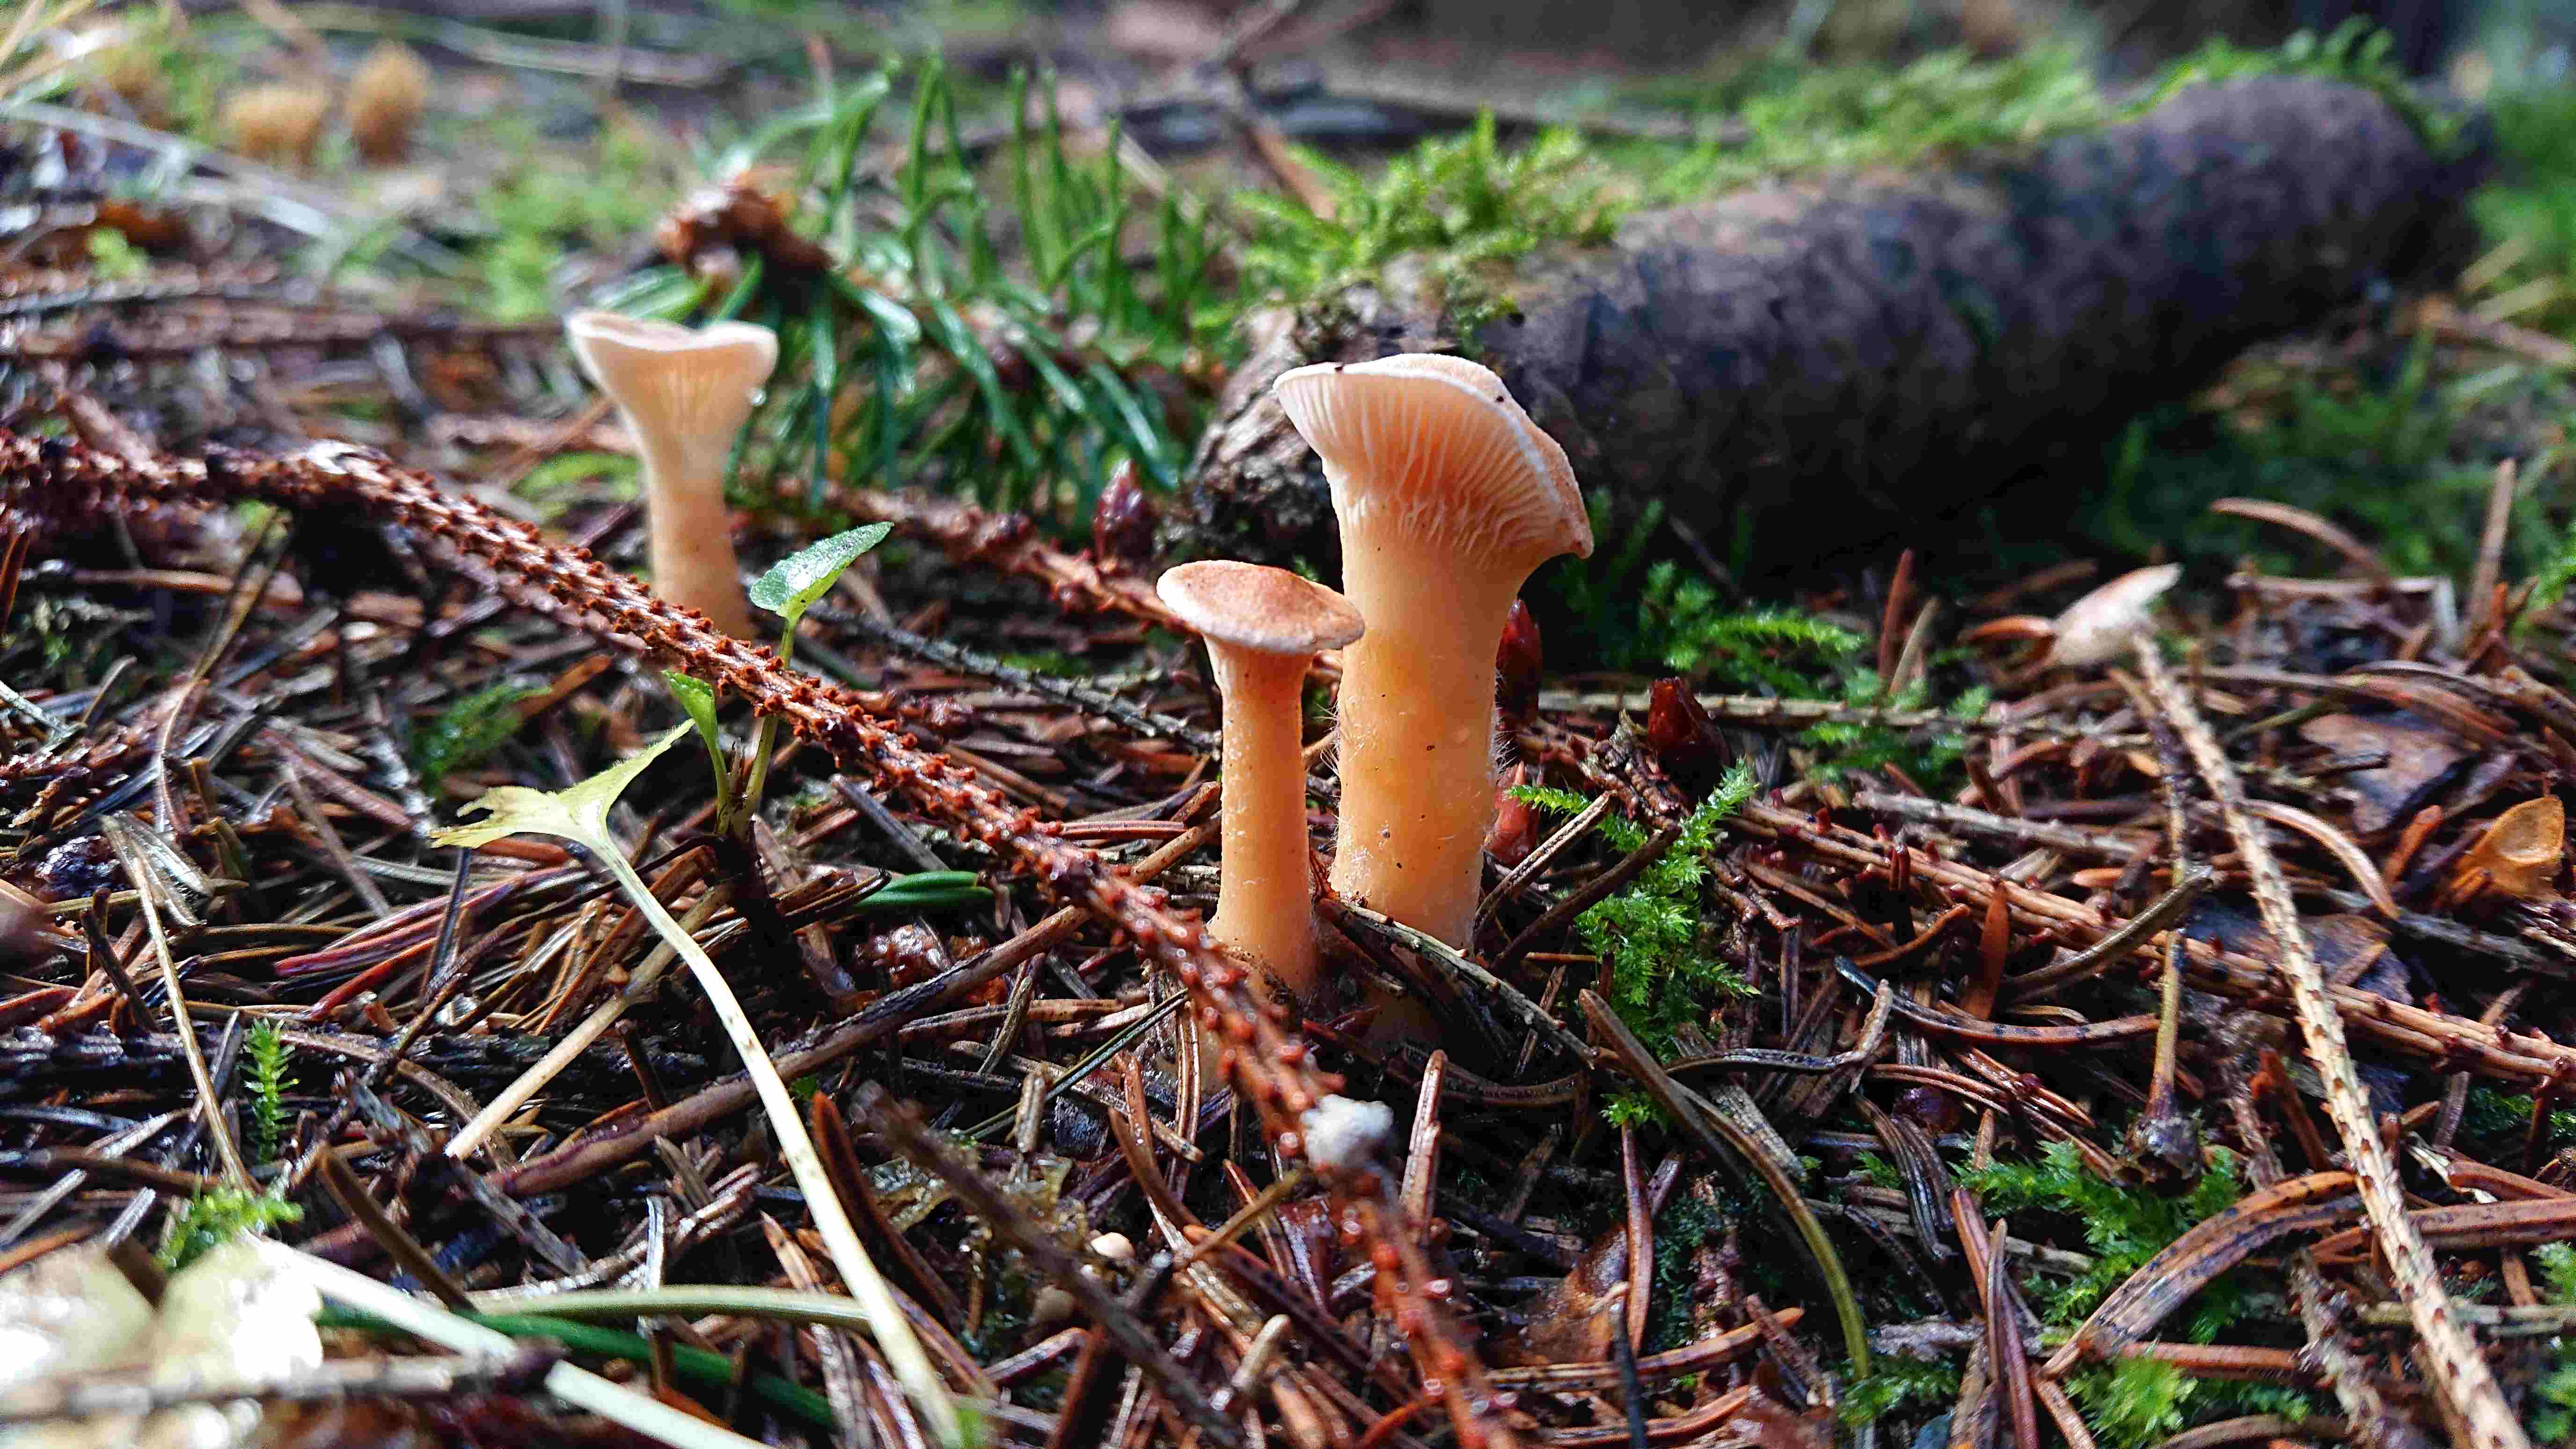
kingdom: Fungi
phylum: Basidiomycota
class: Agaricomycetes
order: Boletales
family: Hygrophoropsidaceae
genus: Hygrophoropsis
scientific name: Hygrophoropsis aurantiaca
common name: almindelig orangekantarel
